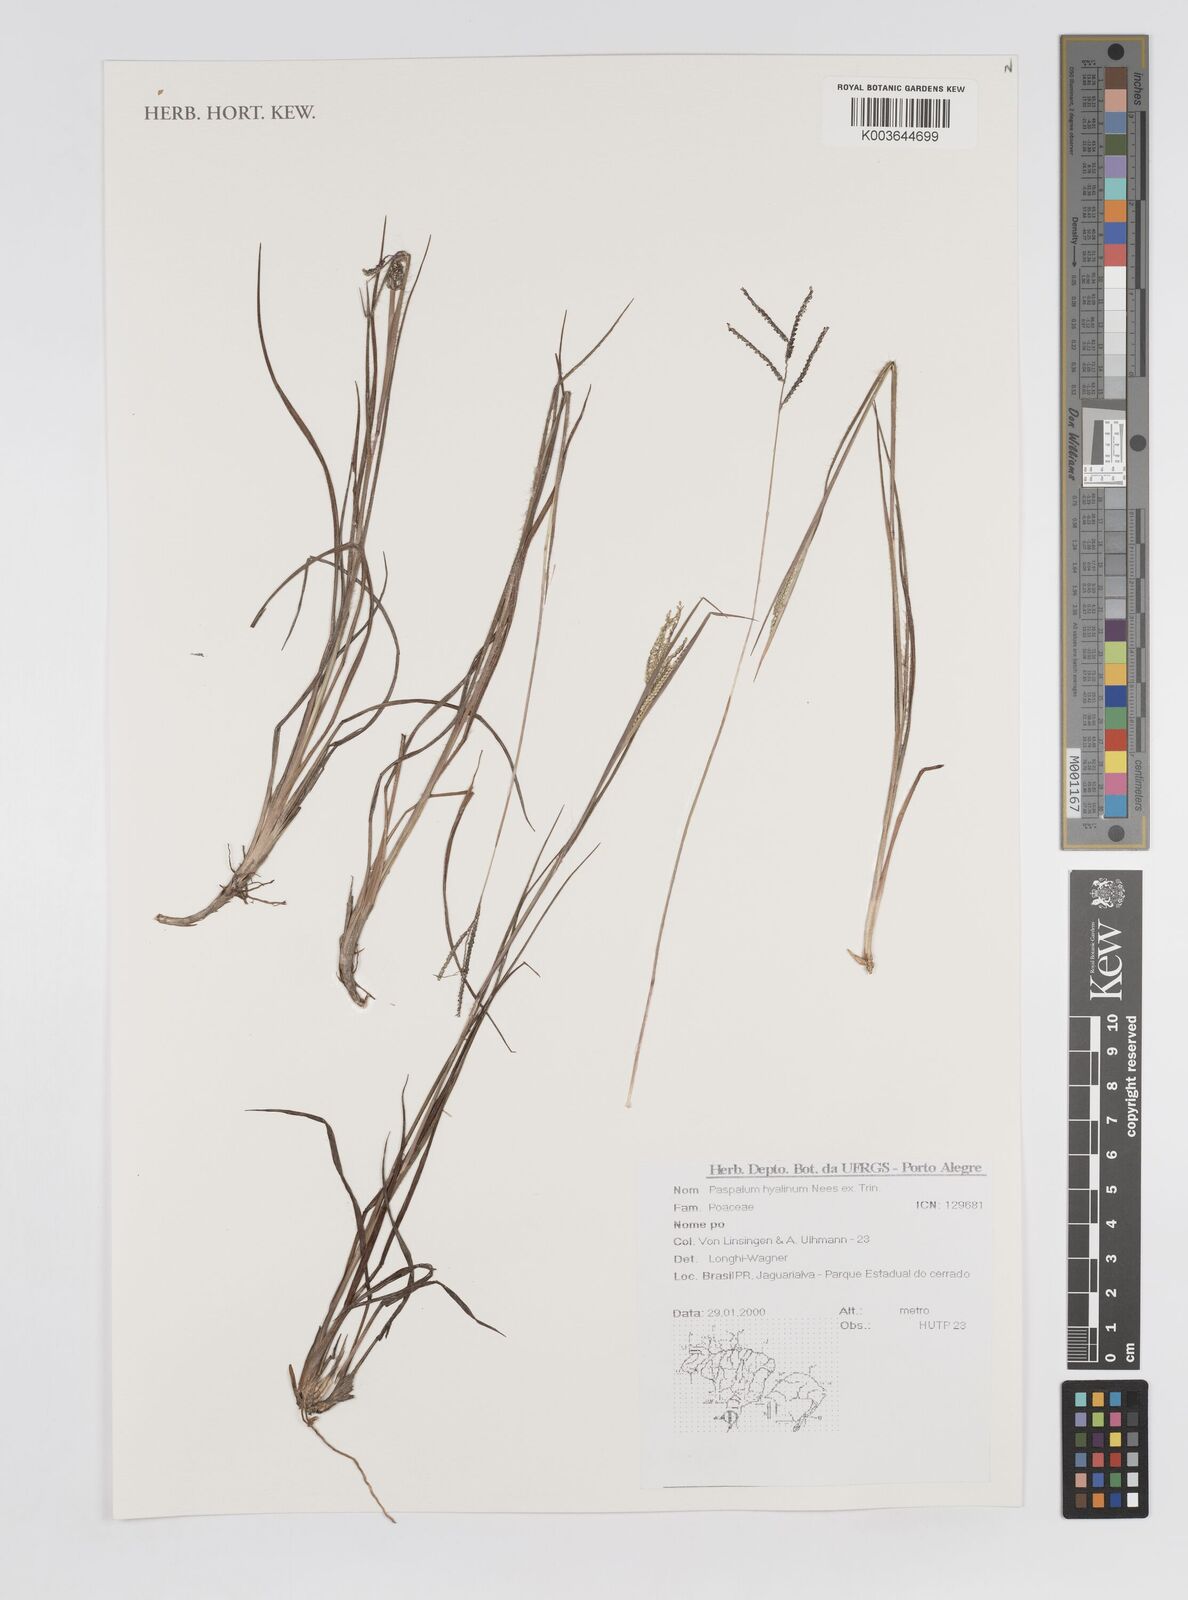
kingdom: Plantae
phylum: Tracheophyta
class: Liliopsida
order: Poales
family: Poaceae
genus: Paspalum
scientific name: Paspalum hyalinum
